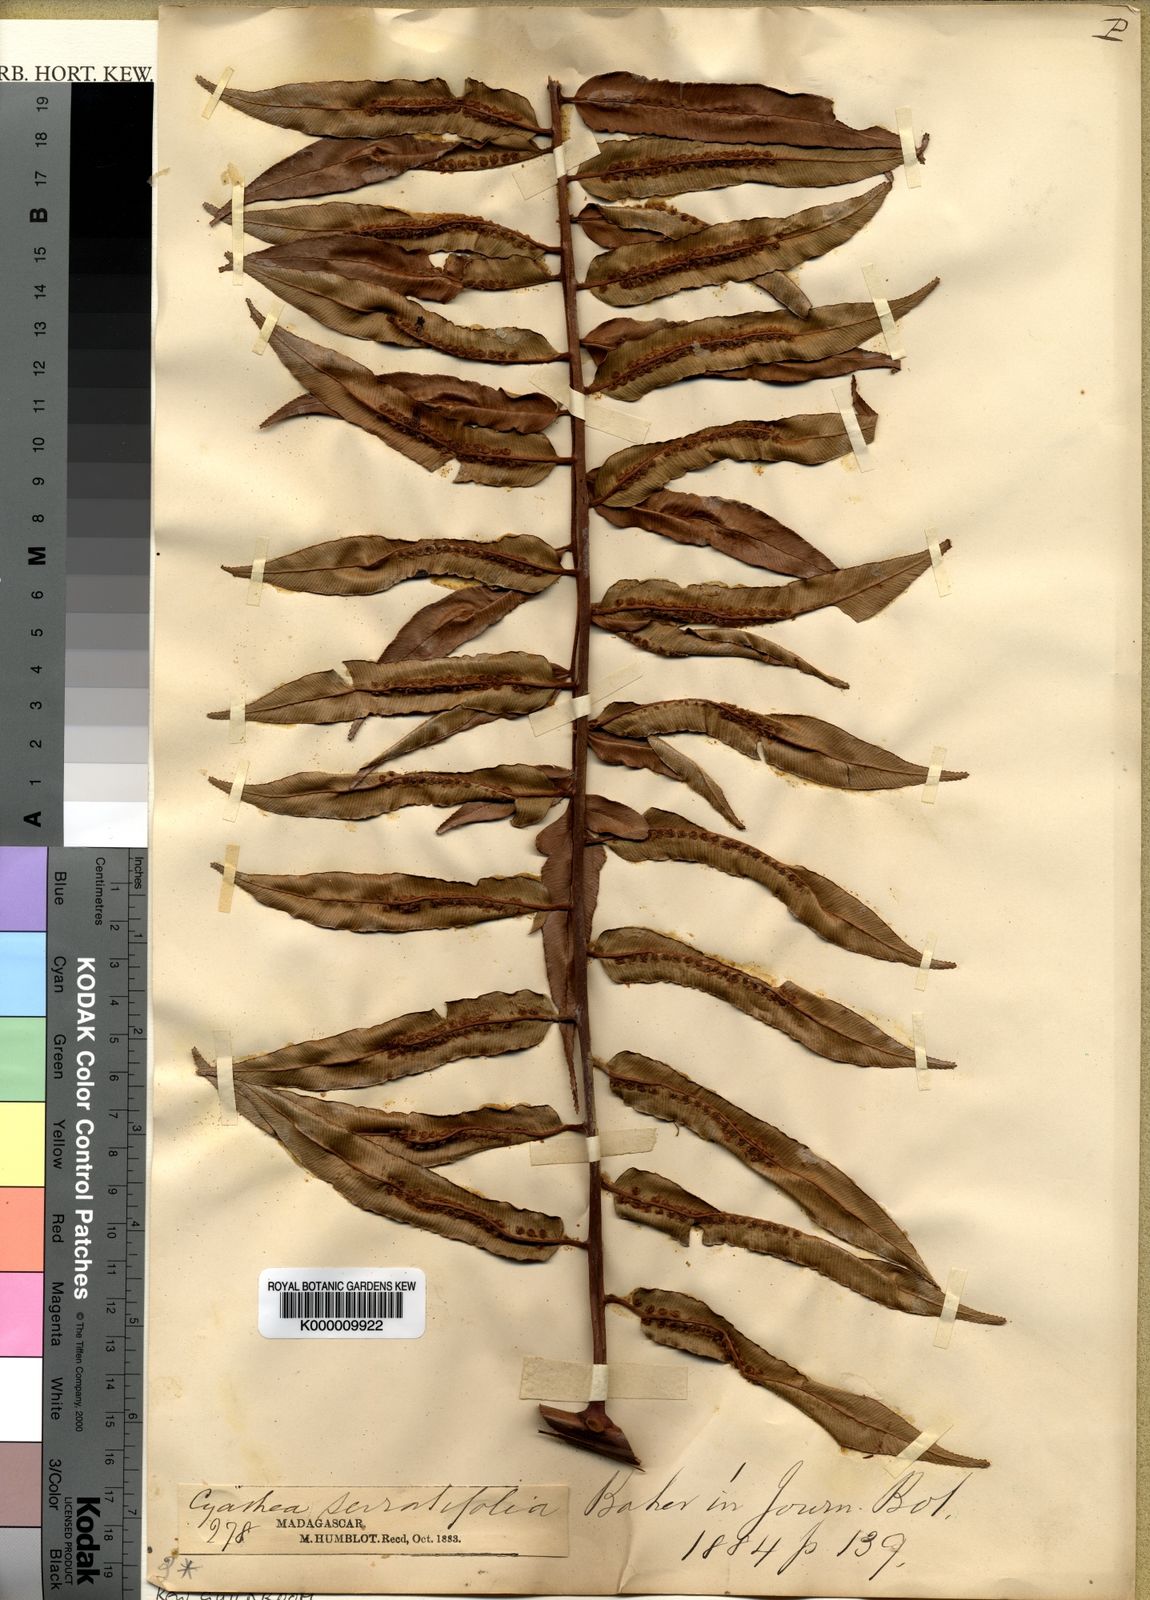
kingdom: Plantae
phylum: Tracheophyta
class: Polypodiopsida
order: Cyatheales
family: Cyatheaceae
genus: Alsophila
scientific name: Alsophila serratifolia
